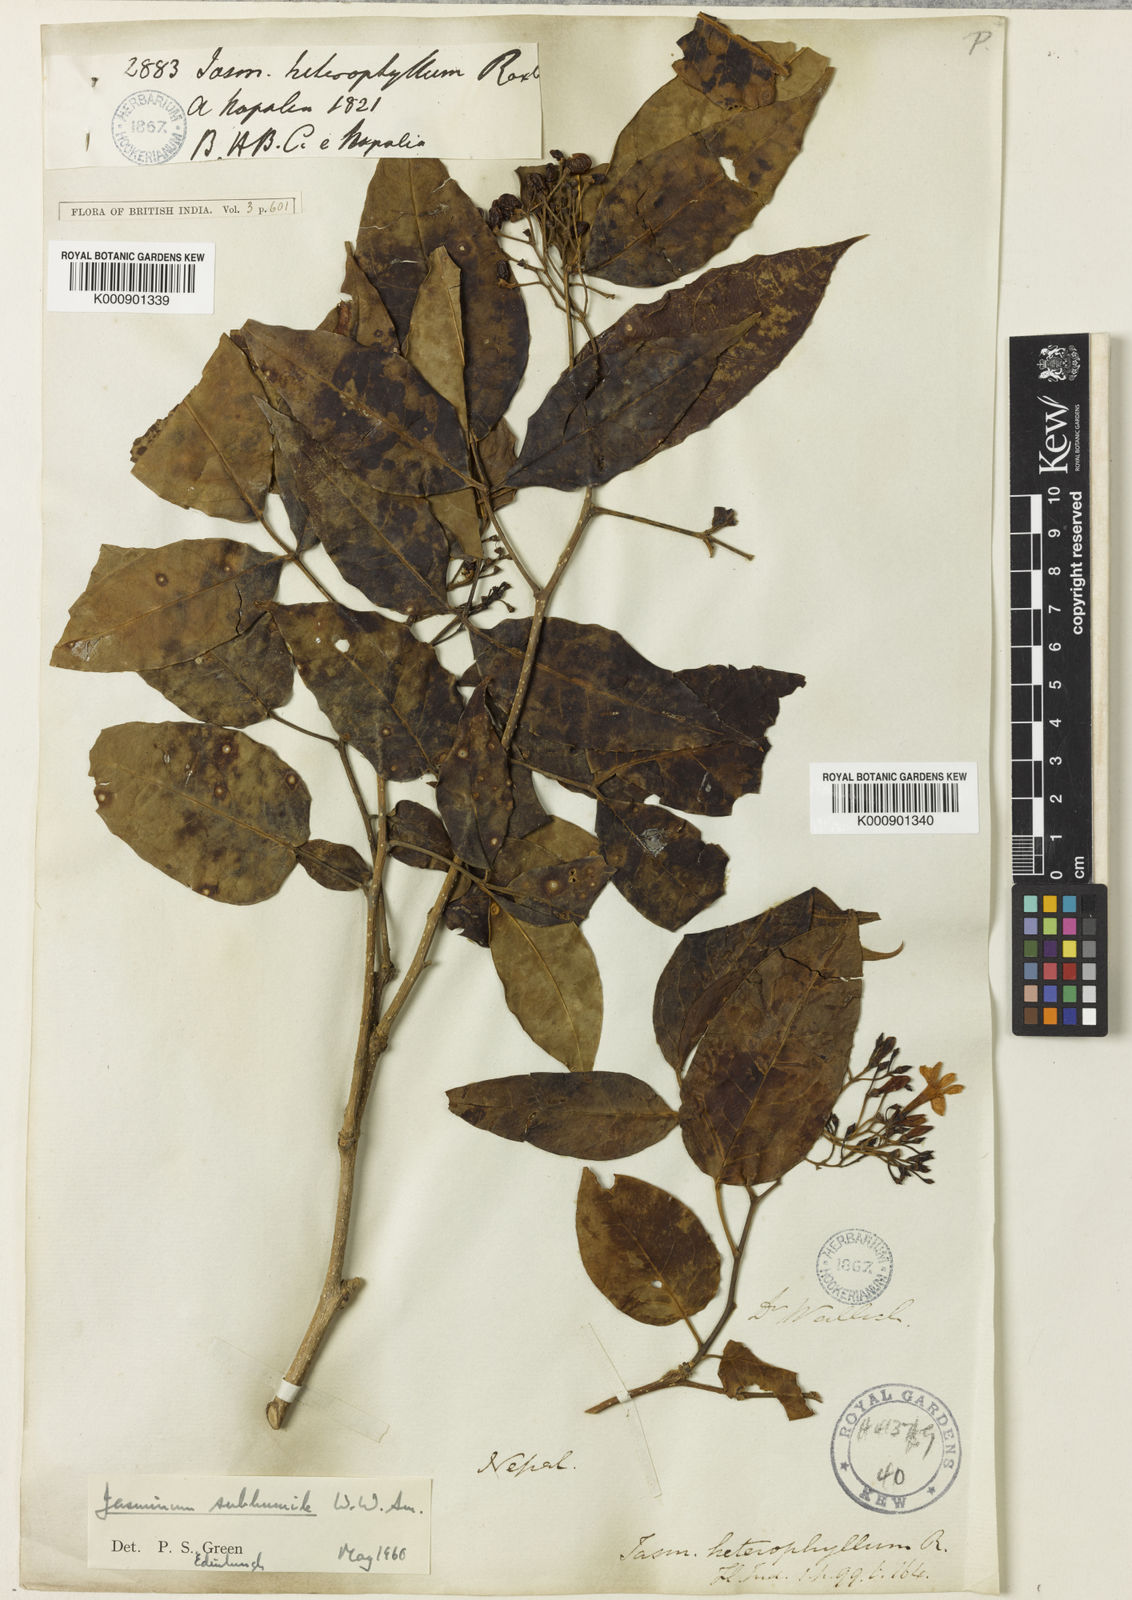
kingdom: Plantae
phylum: Tracheophyta
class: Magnoliopsida
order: Lamiales
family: Oleaceae
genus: Chrysojasminum
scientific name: Chrysojasminum subhumile
